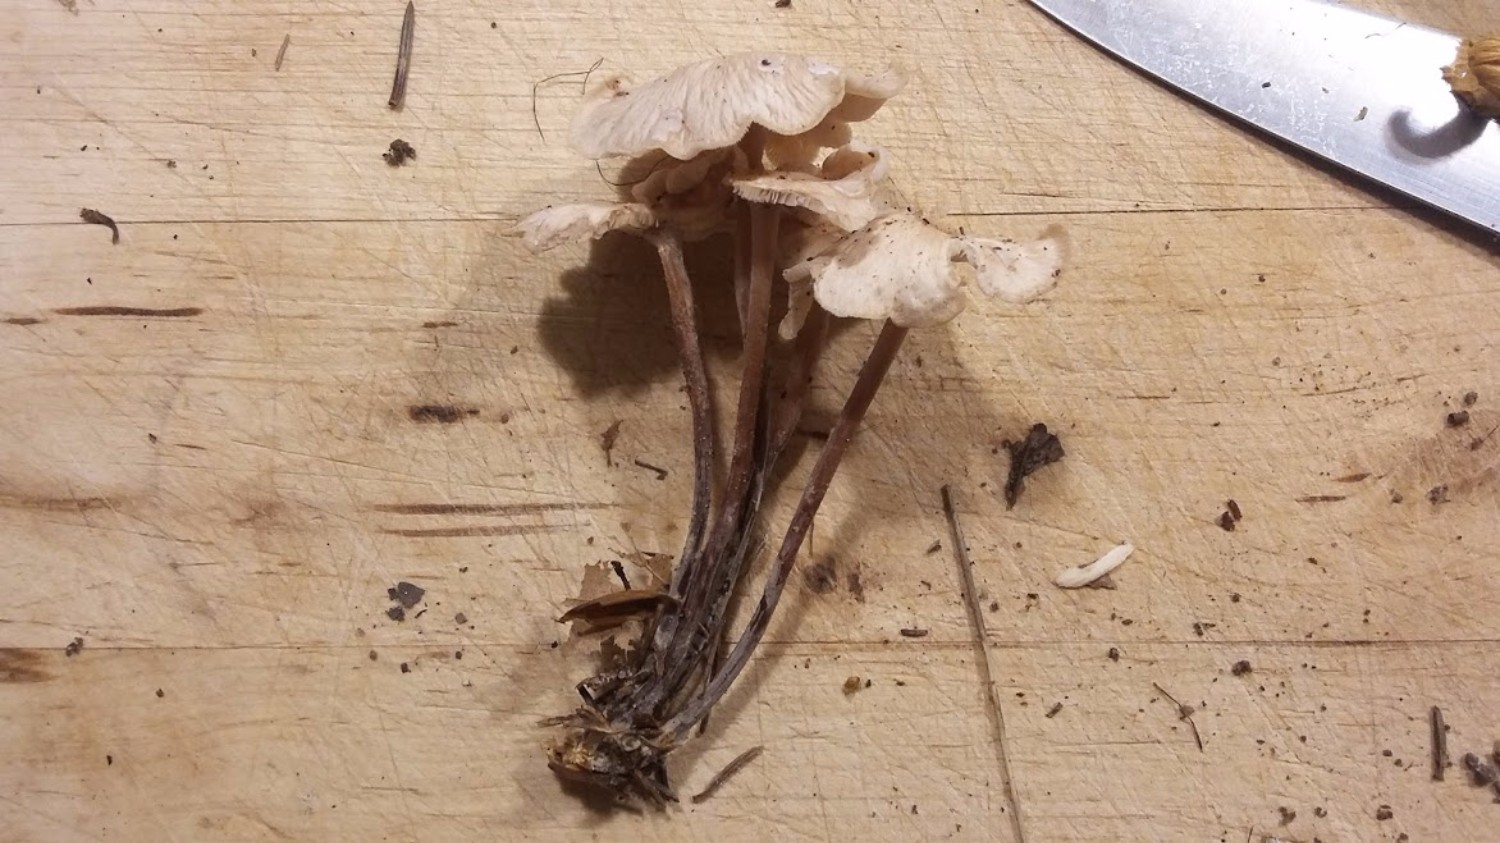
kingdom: Fungi
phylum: Basidiomycota
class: Agaricomycetes
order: Agaricales
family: Omphalotaceae
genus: Collybiopsis
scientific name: Collybiopsis confluens
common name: knippe-fladhat
